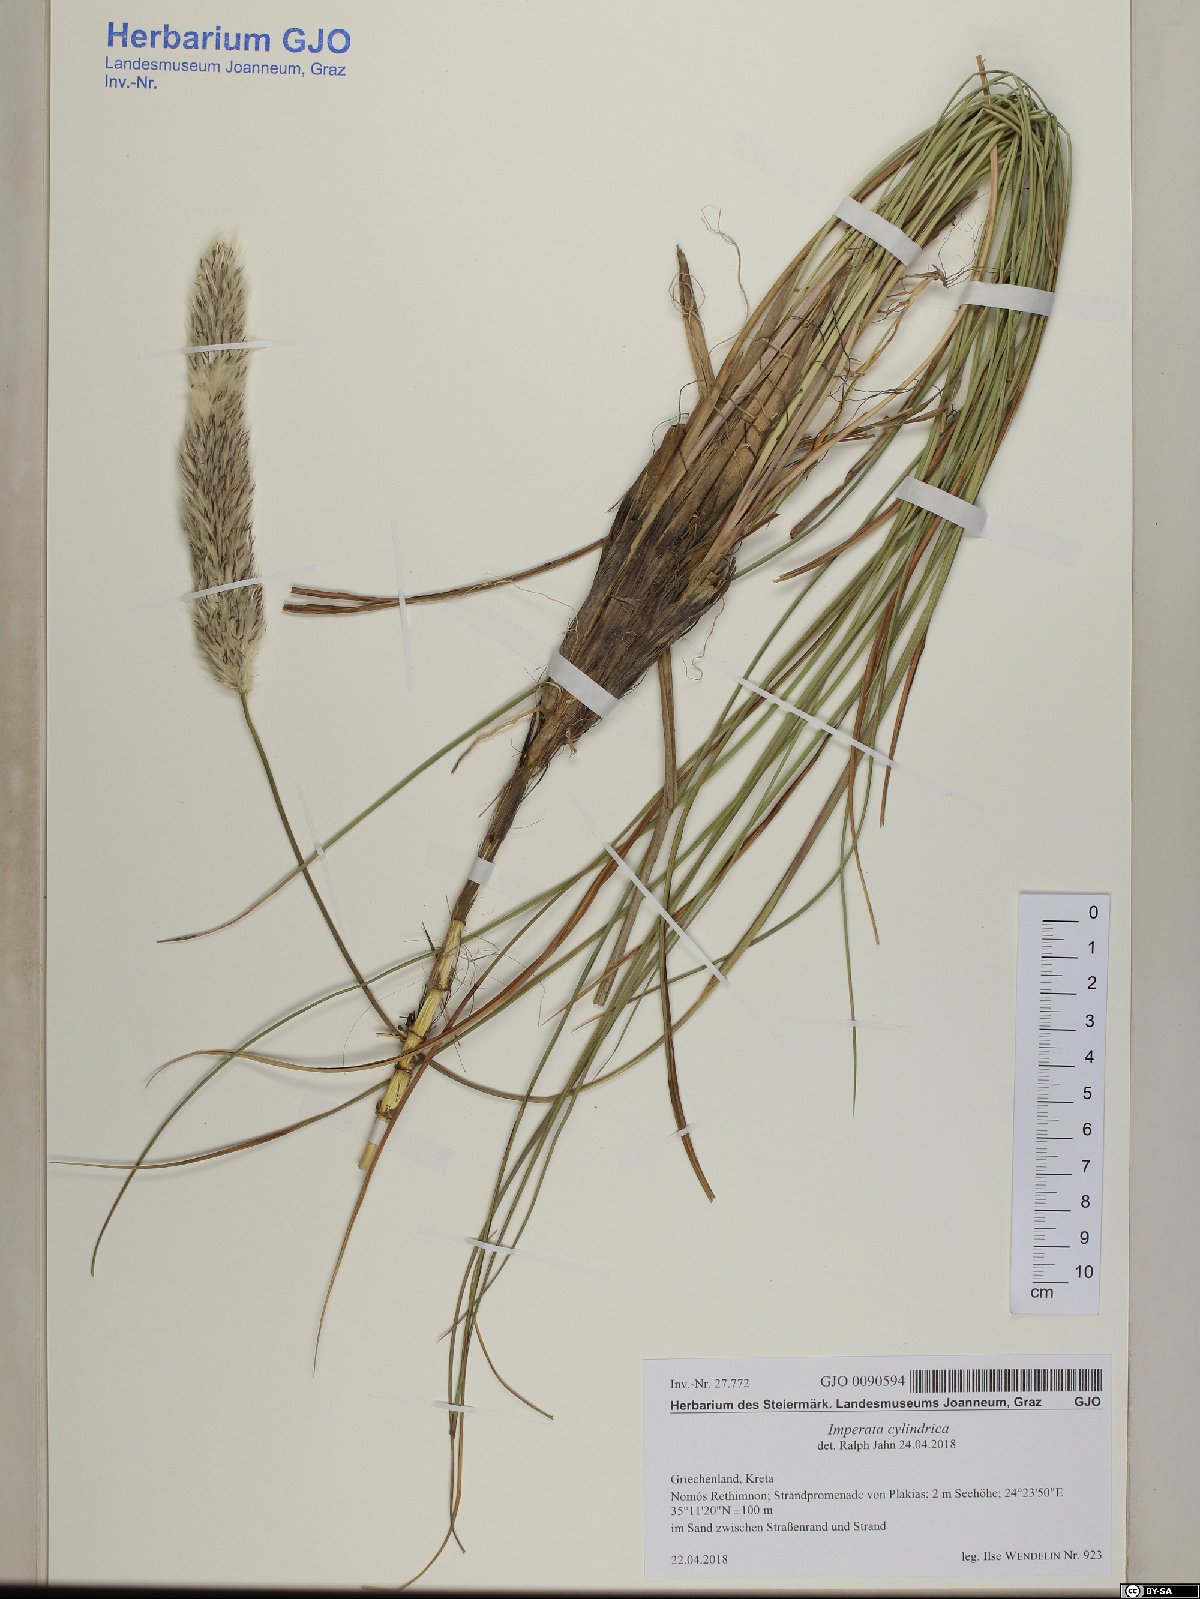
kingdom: Plantae
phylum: Tracheophyta
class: Liliopsida
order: Poales
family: Poaceae
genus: Imperata
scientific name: Imperata cylindrica
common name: Cogongrass
